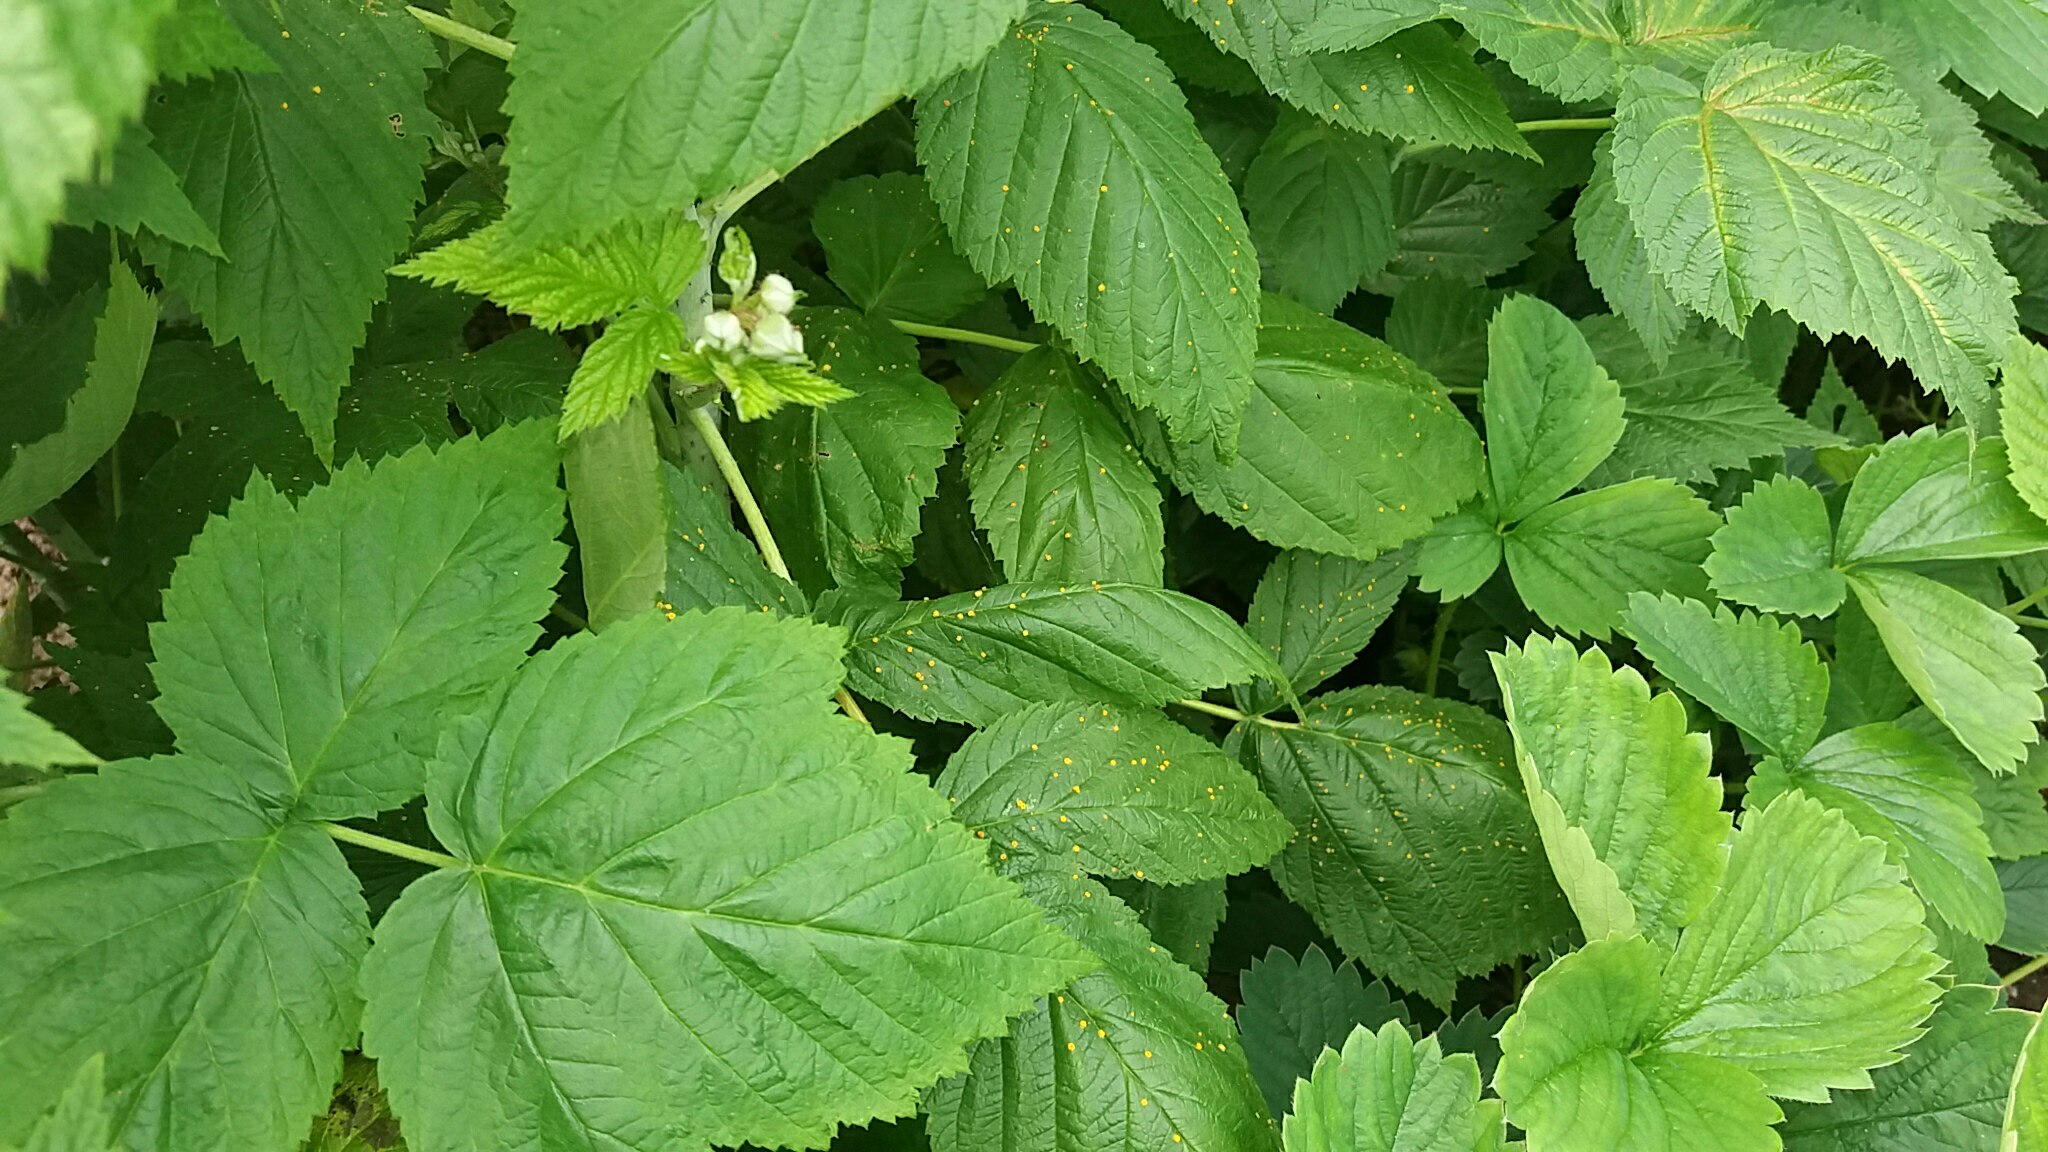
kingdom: Fungi
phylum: Basidiomycota
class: Pucciniomycetes
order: Pucciniales
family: Phragmidiaceae
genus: Phragmidium
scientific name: Phragmidium rubi-idaei
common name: hindbær-flercellerust
